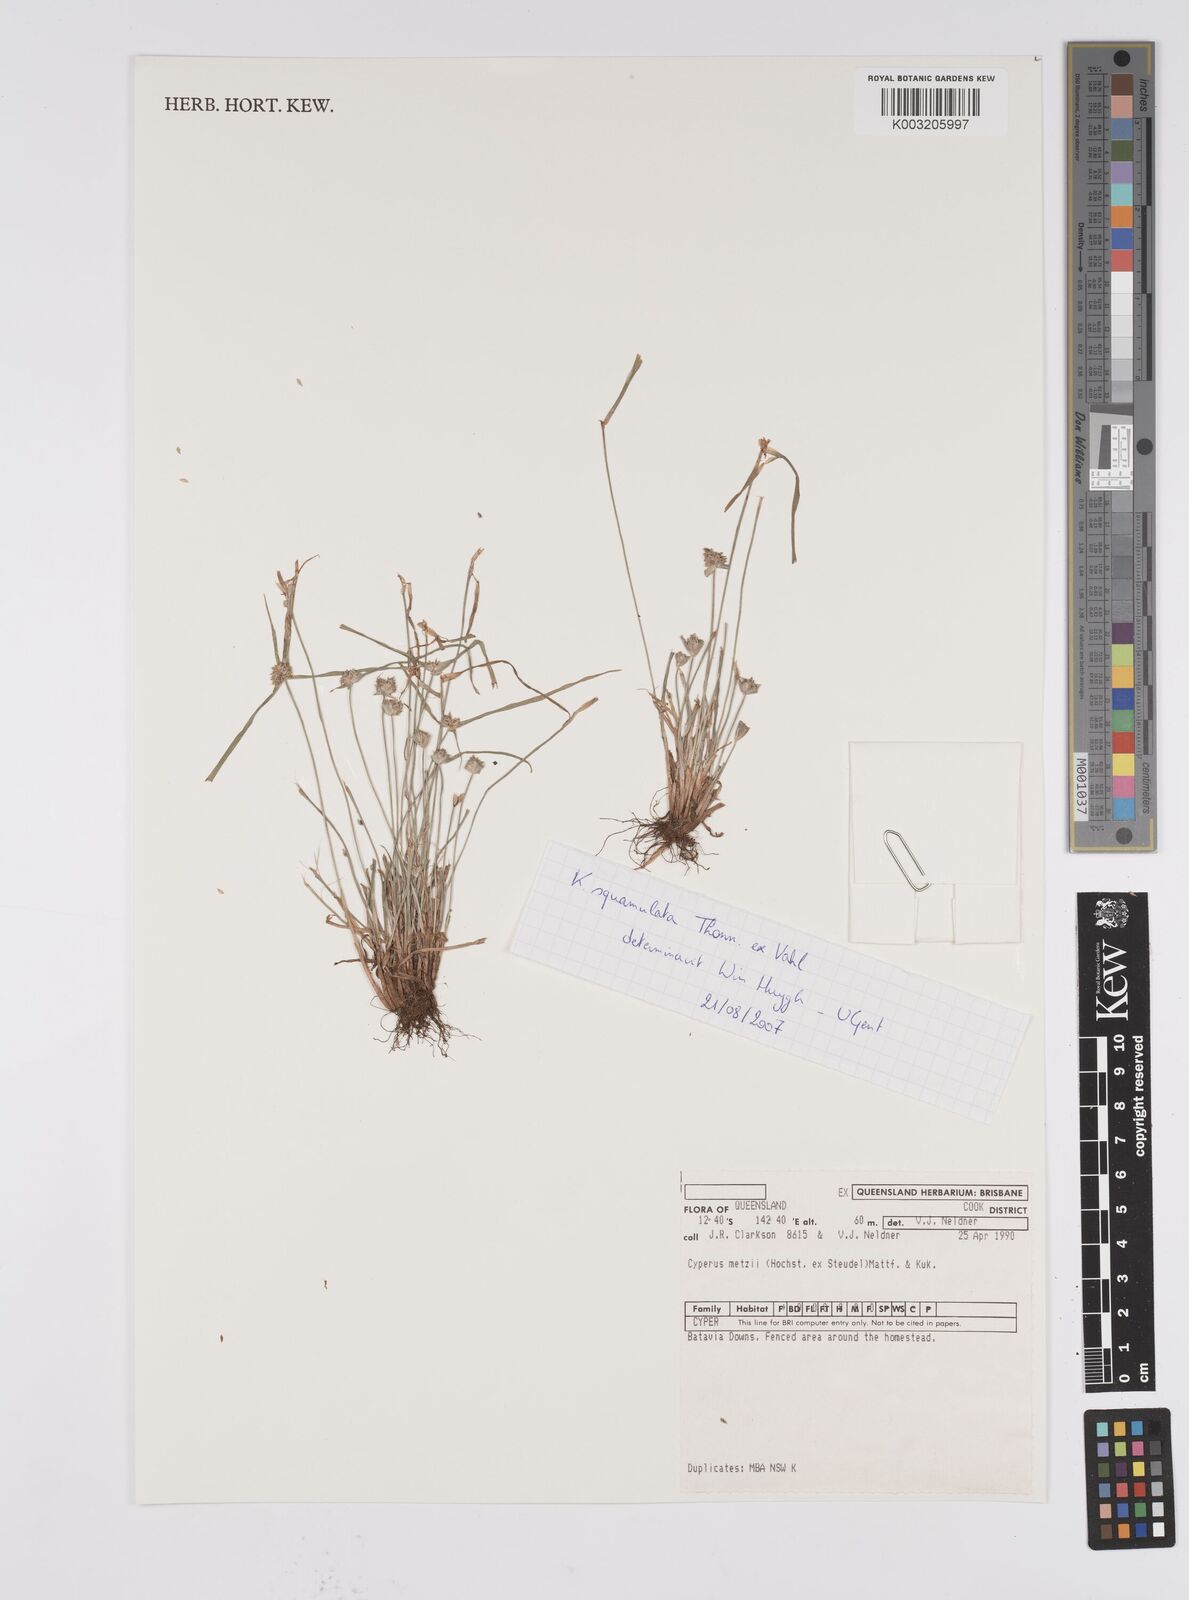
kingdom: Plantae
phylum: Tracheophyta
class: Liliopsida
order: Poales
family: Cyperaceae
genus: Cyperus
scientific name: Cyperus distans
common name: Slender cyperus
